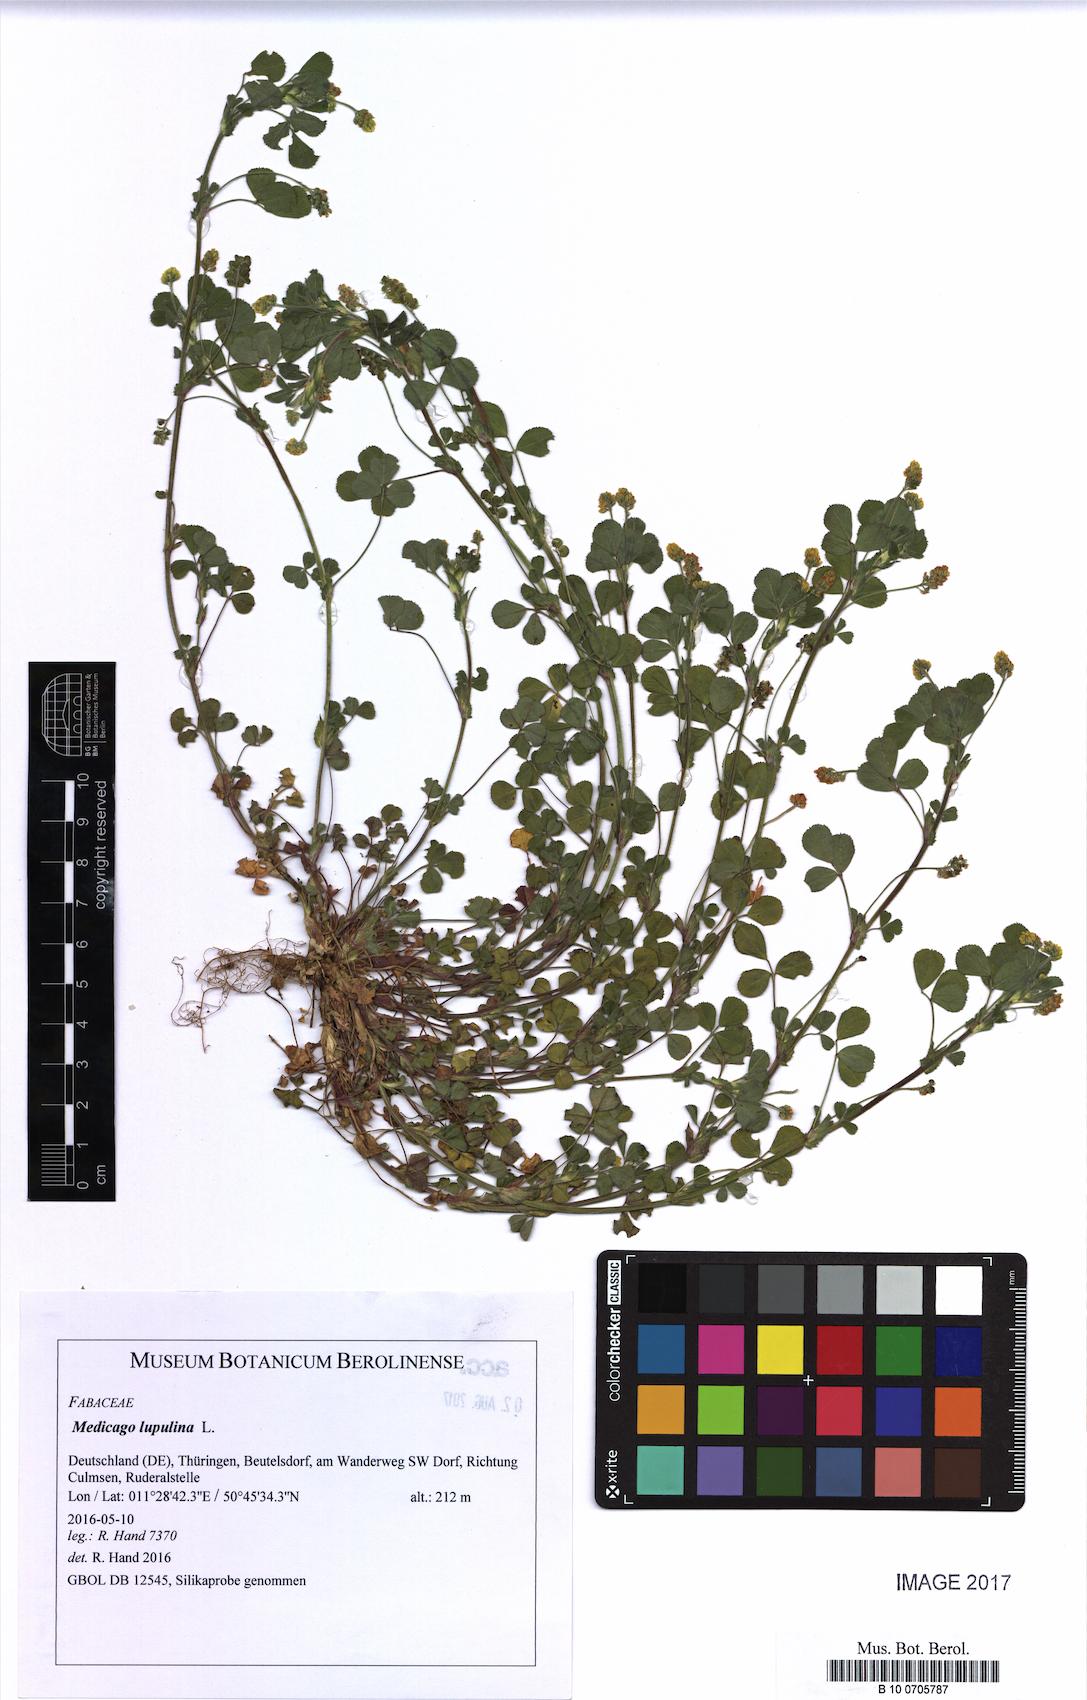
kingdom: Plantae
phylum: Tracheophyta
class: Magnoliopsida
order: Fabales
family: Fabaceae
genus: Medicago
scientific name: Medicago lupulina
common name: Black medick
